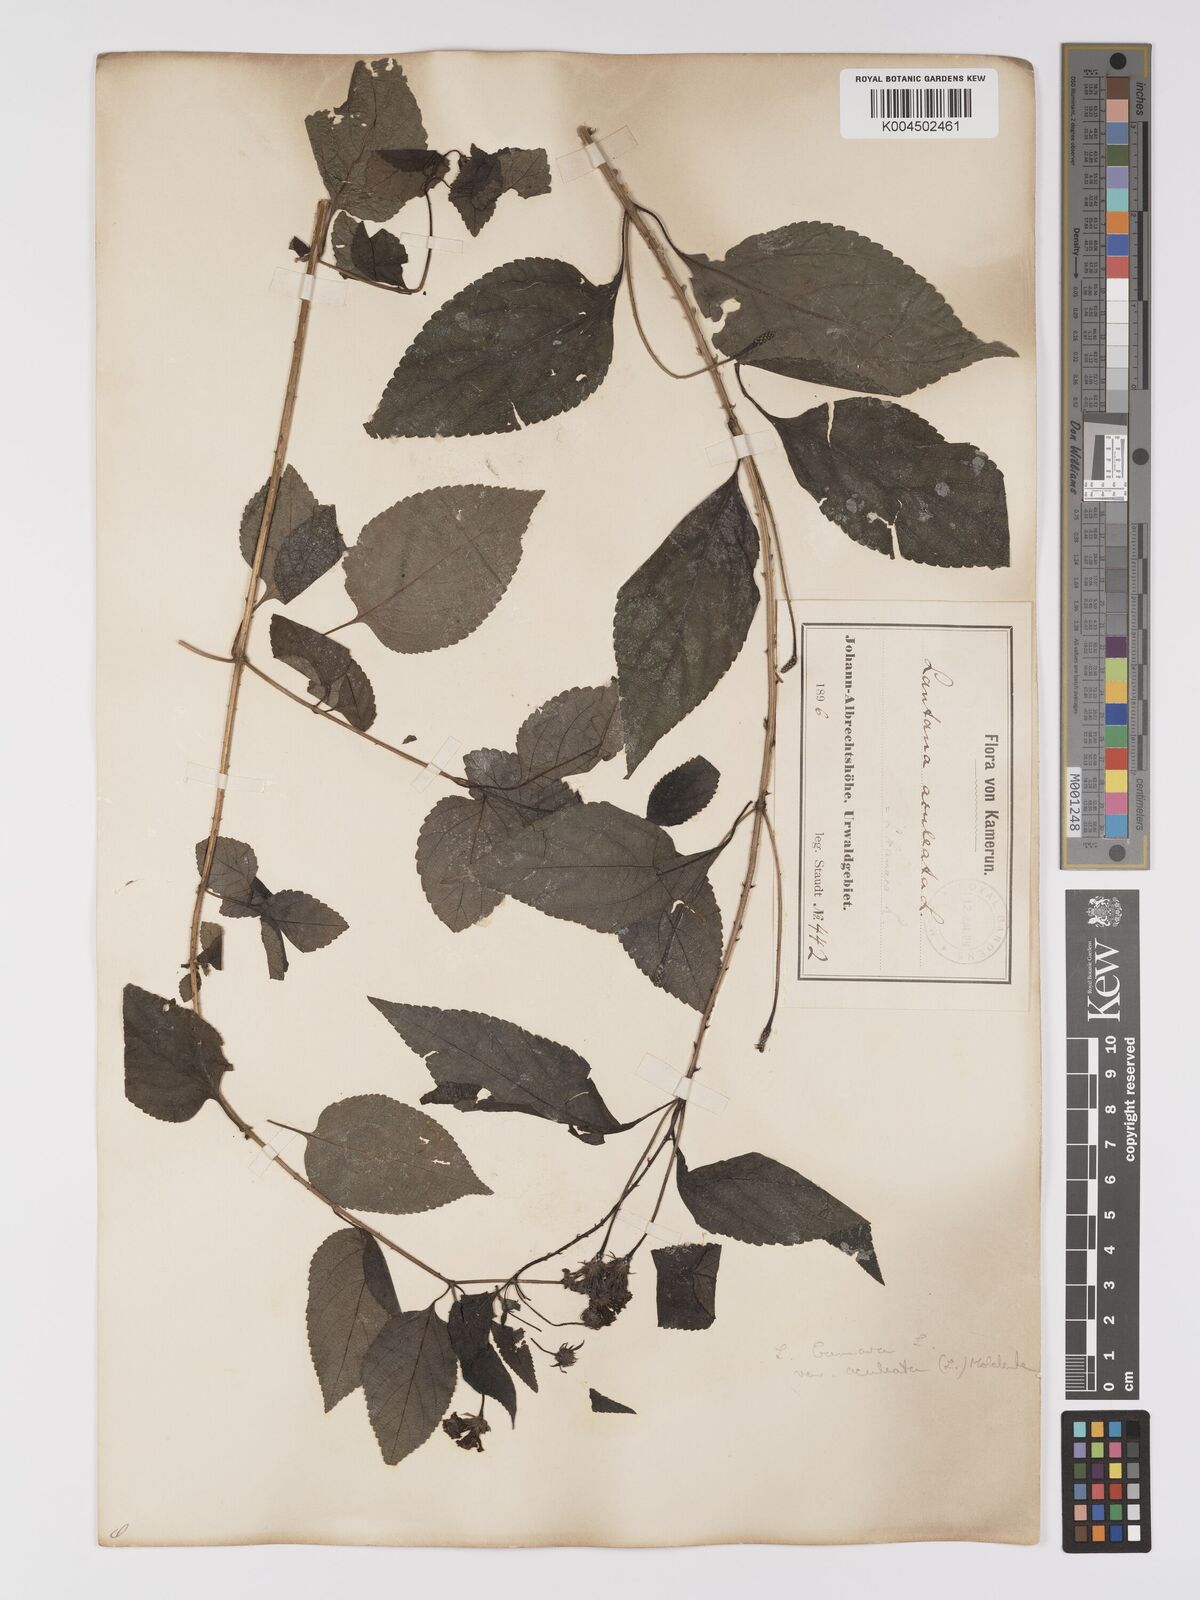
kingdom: Plantae
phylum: Tracheophyta
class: Magnoliopsida
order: Lamiales
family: Verbenaceae
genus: Lantana
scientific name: Lantana camara
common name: Lantana
